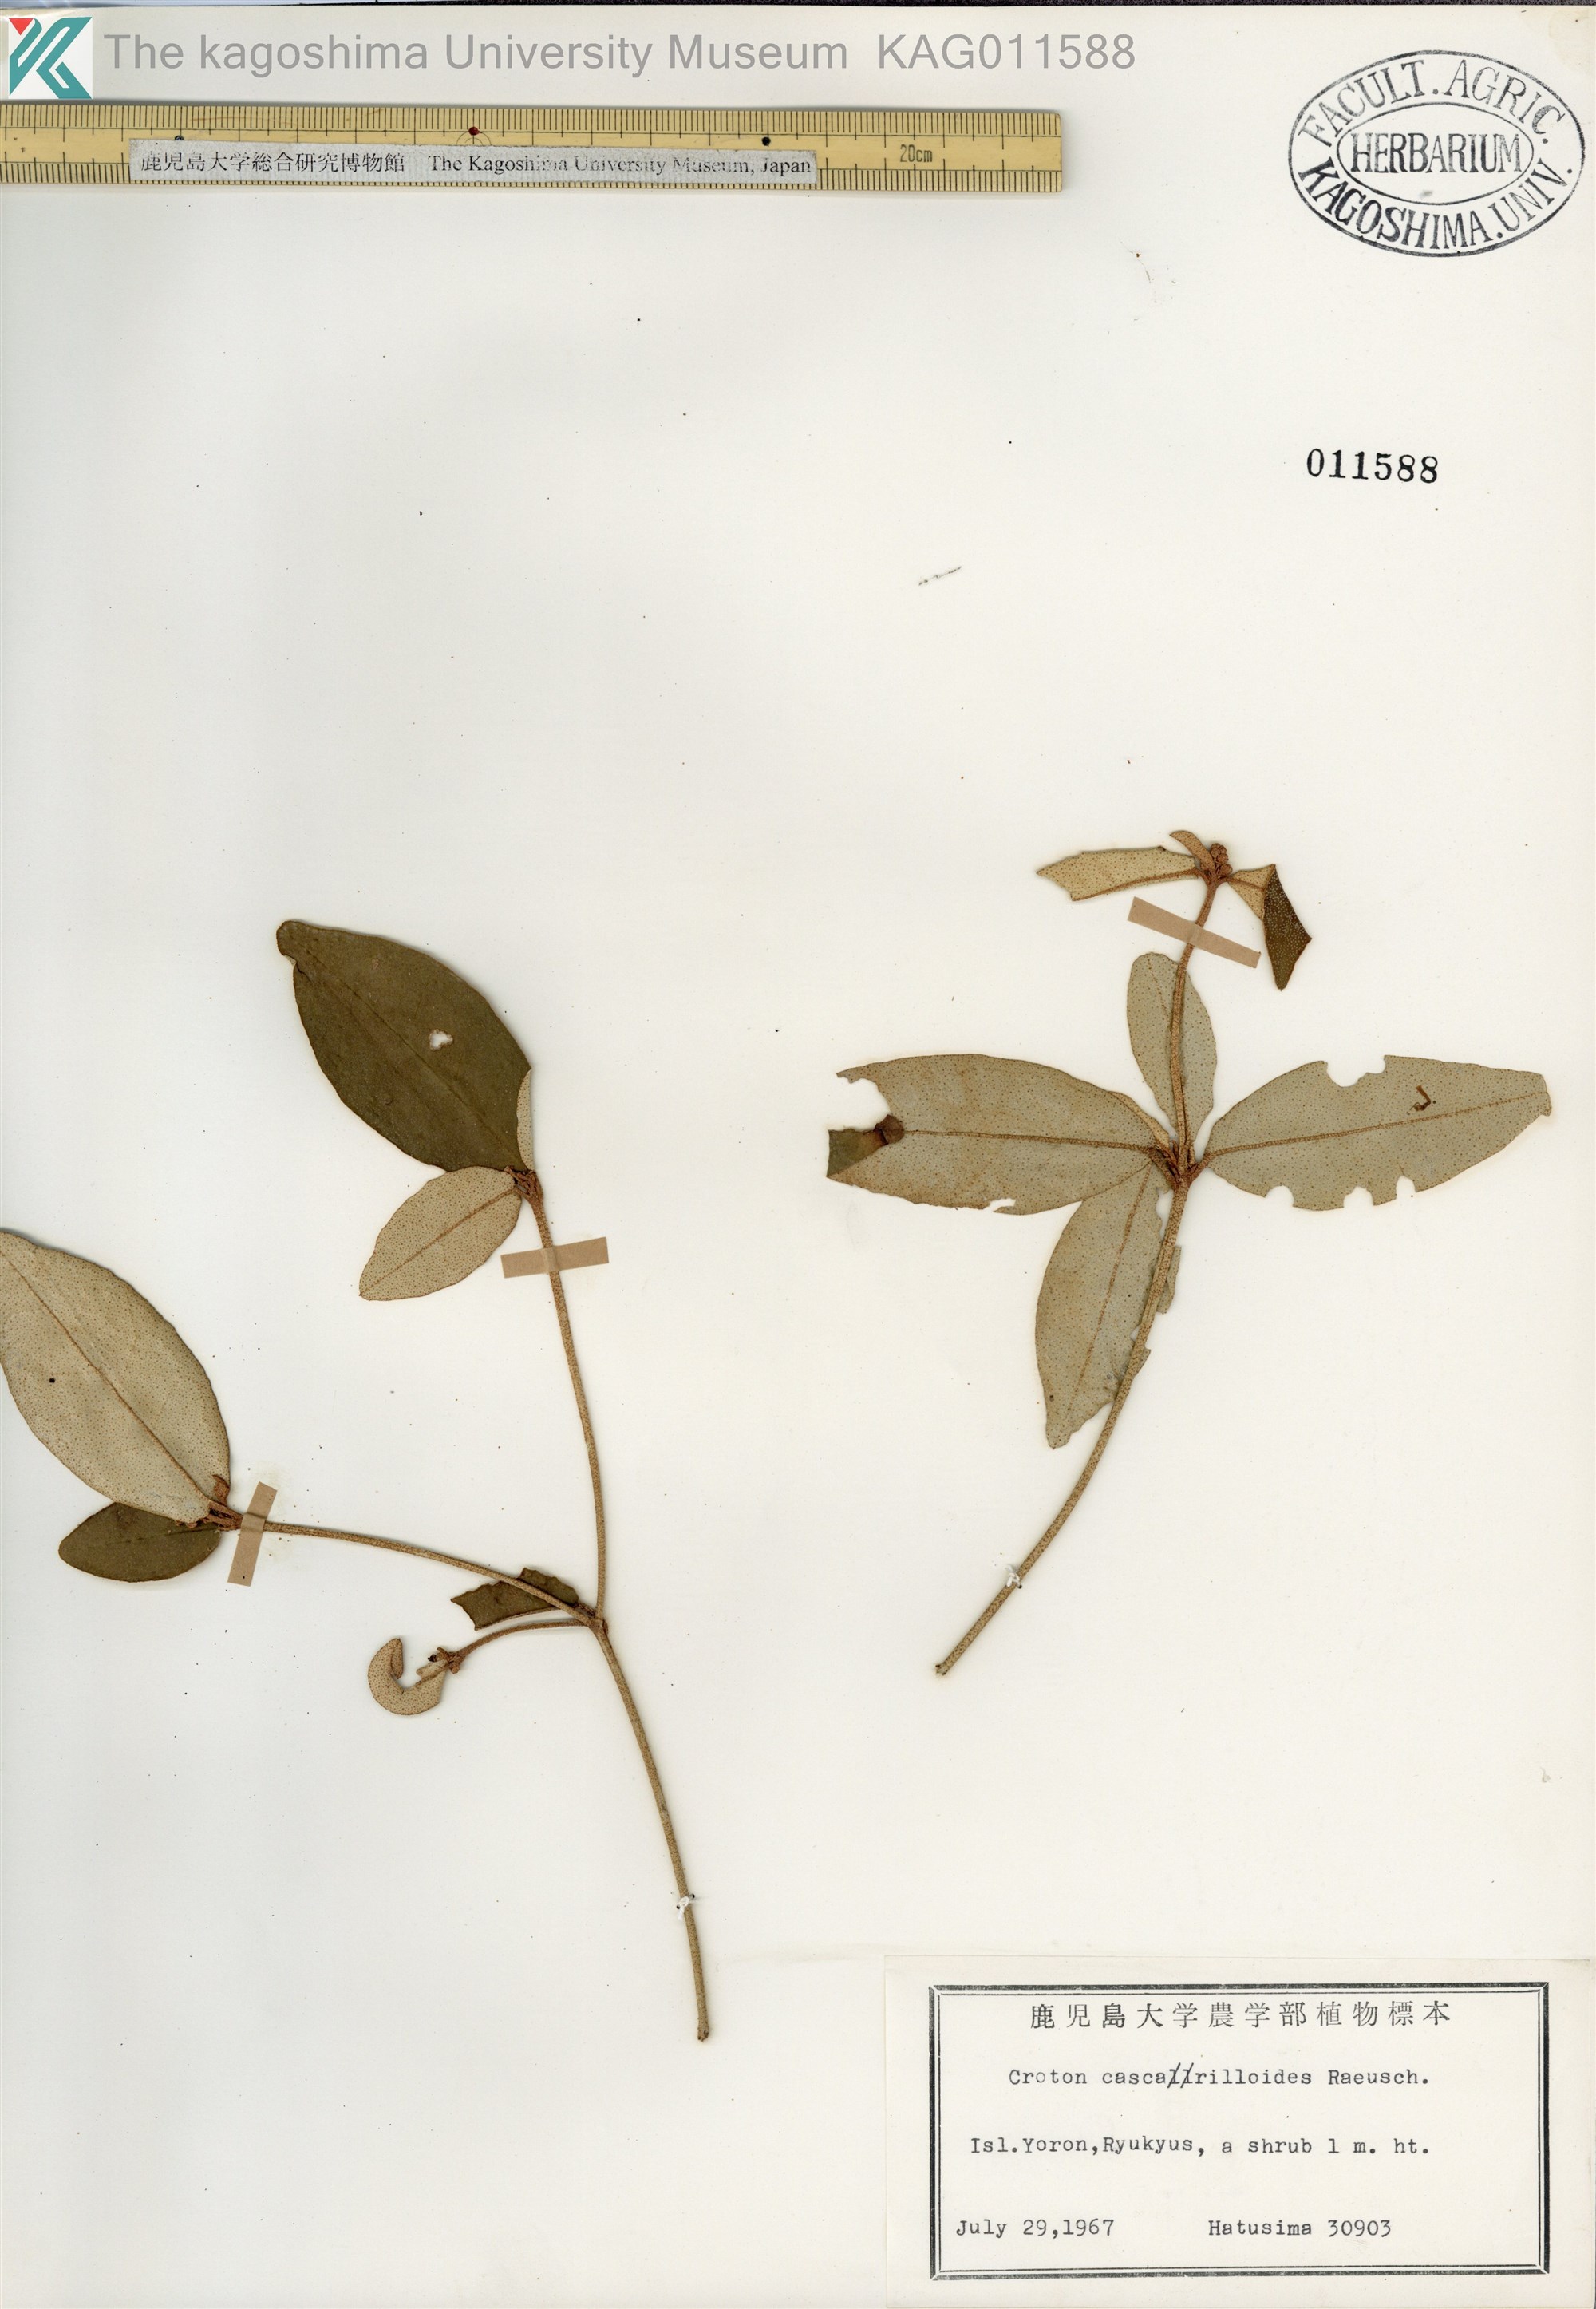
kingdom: Plantae
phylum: Tracheophyta
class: Magnoliopsida
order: Malpighiales
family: Euphorbiaceae
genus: Croton
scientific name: Croton cascarilloides
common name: グミモドキ
